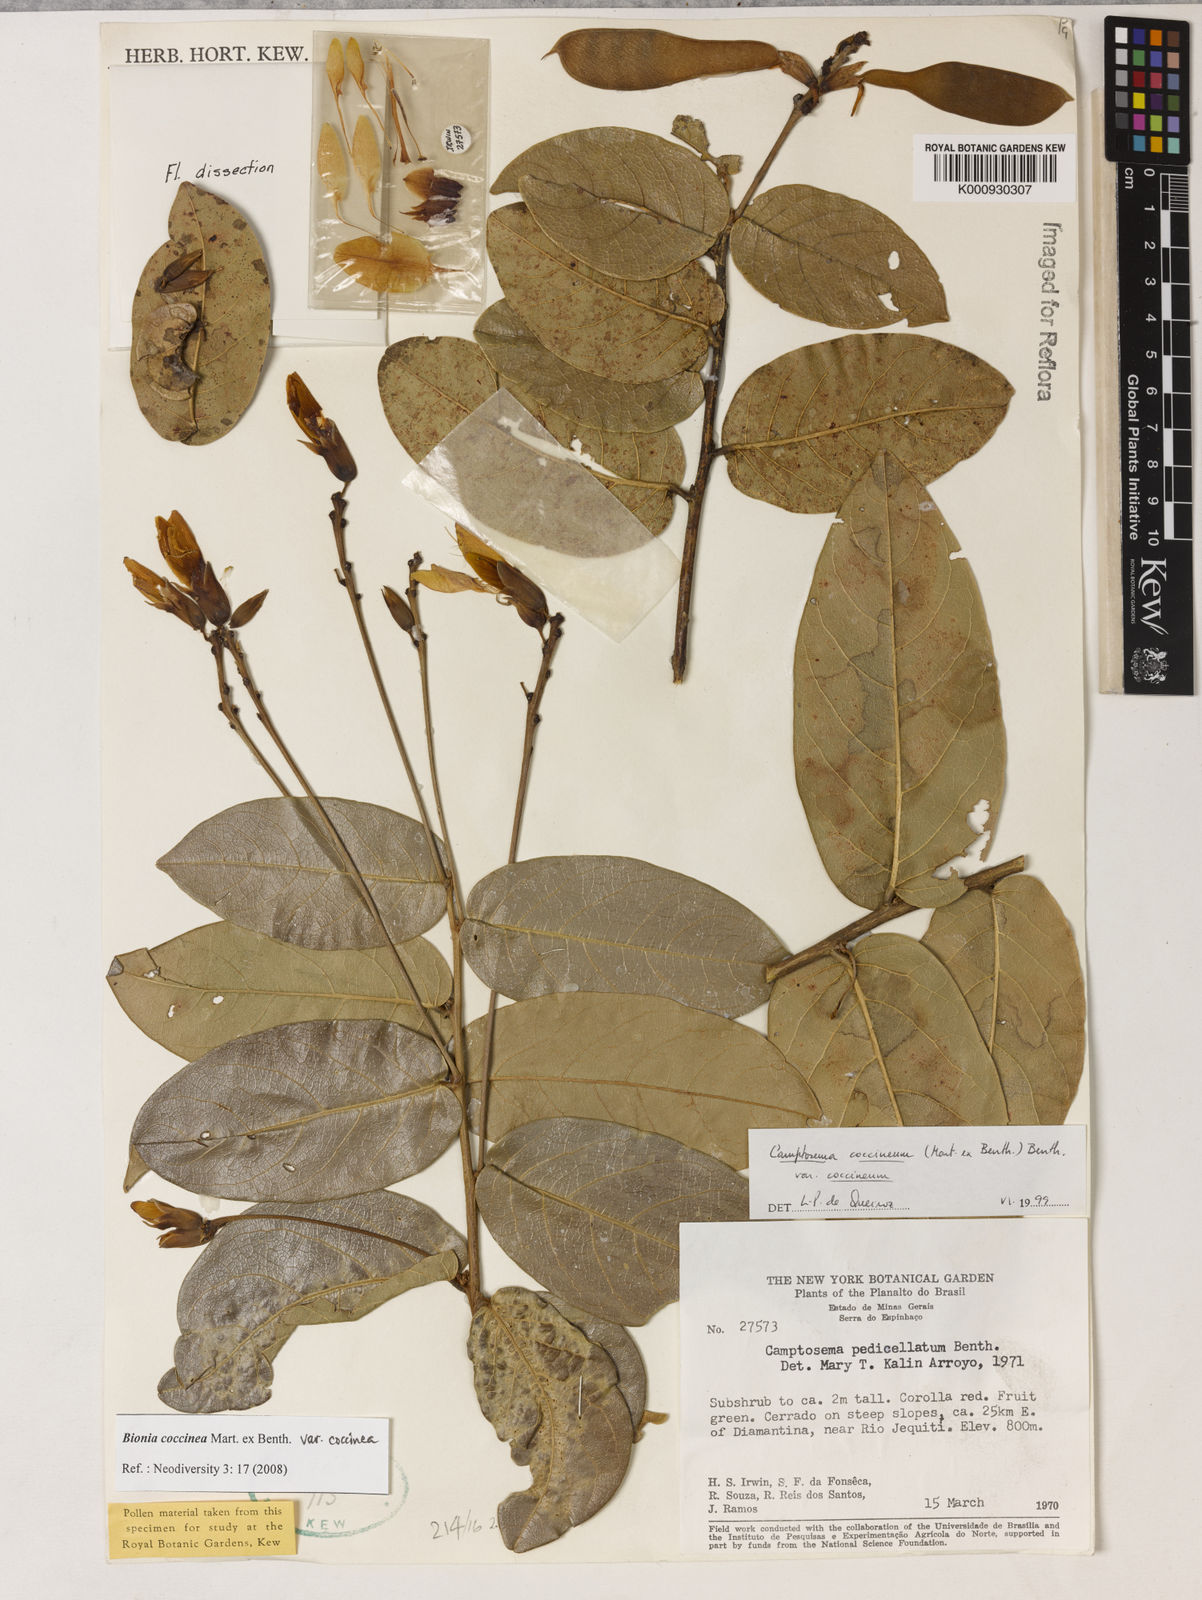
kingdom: Plantae
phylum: Tracheophyta
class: Magnoliopsida
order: Fabales
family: Fabaceae
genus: Camptosema
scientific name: Camptosema coccineum
